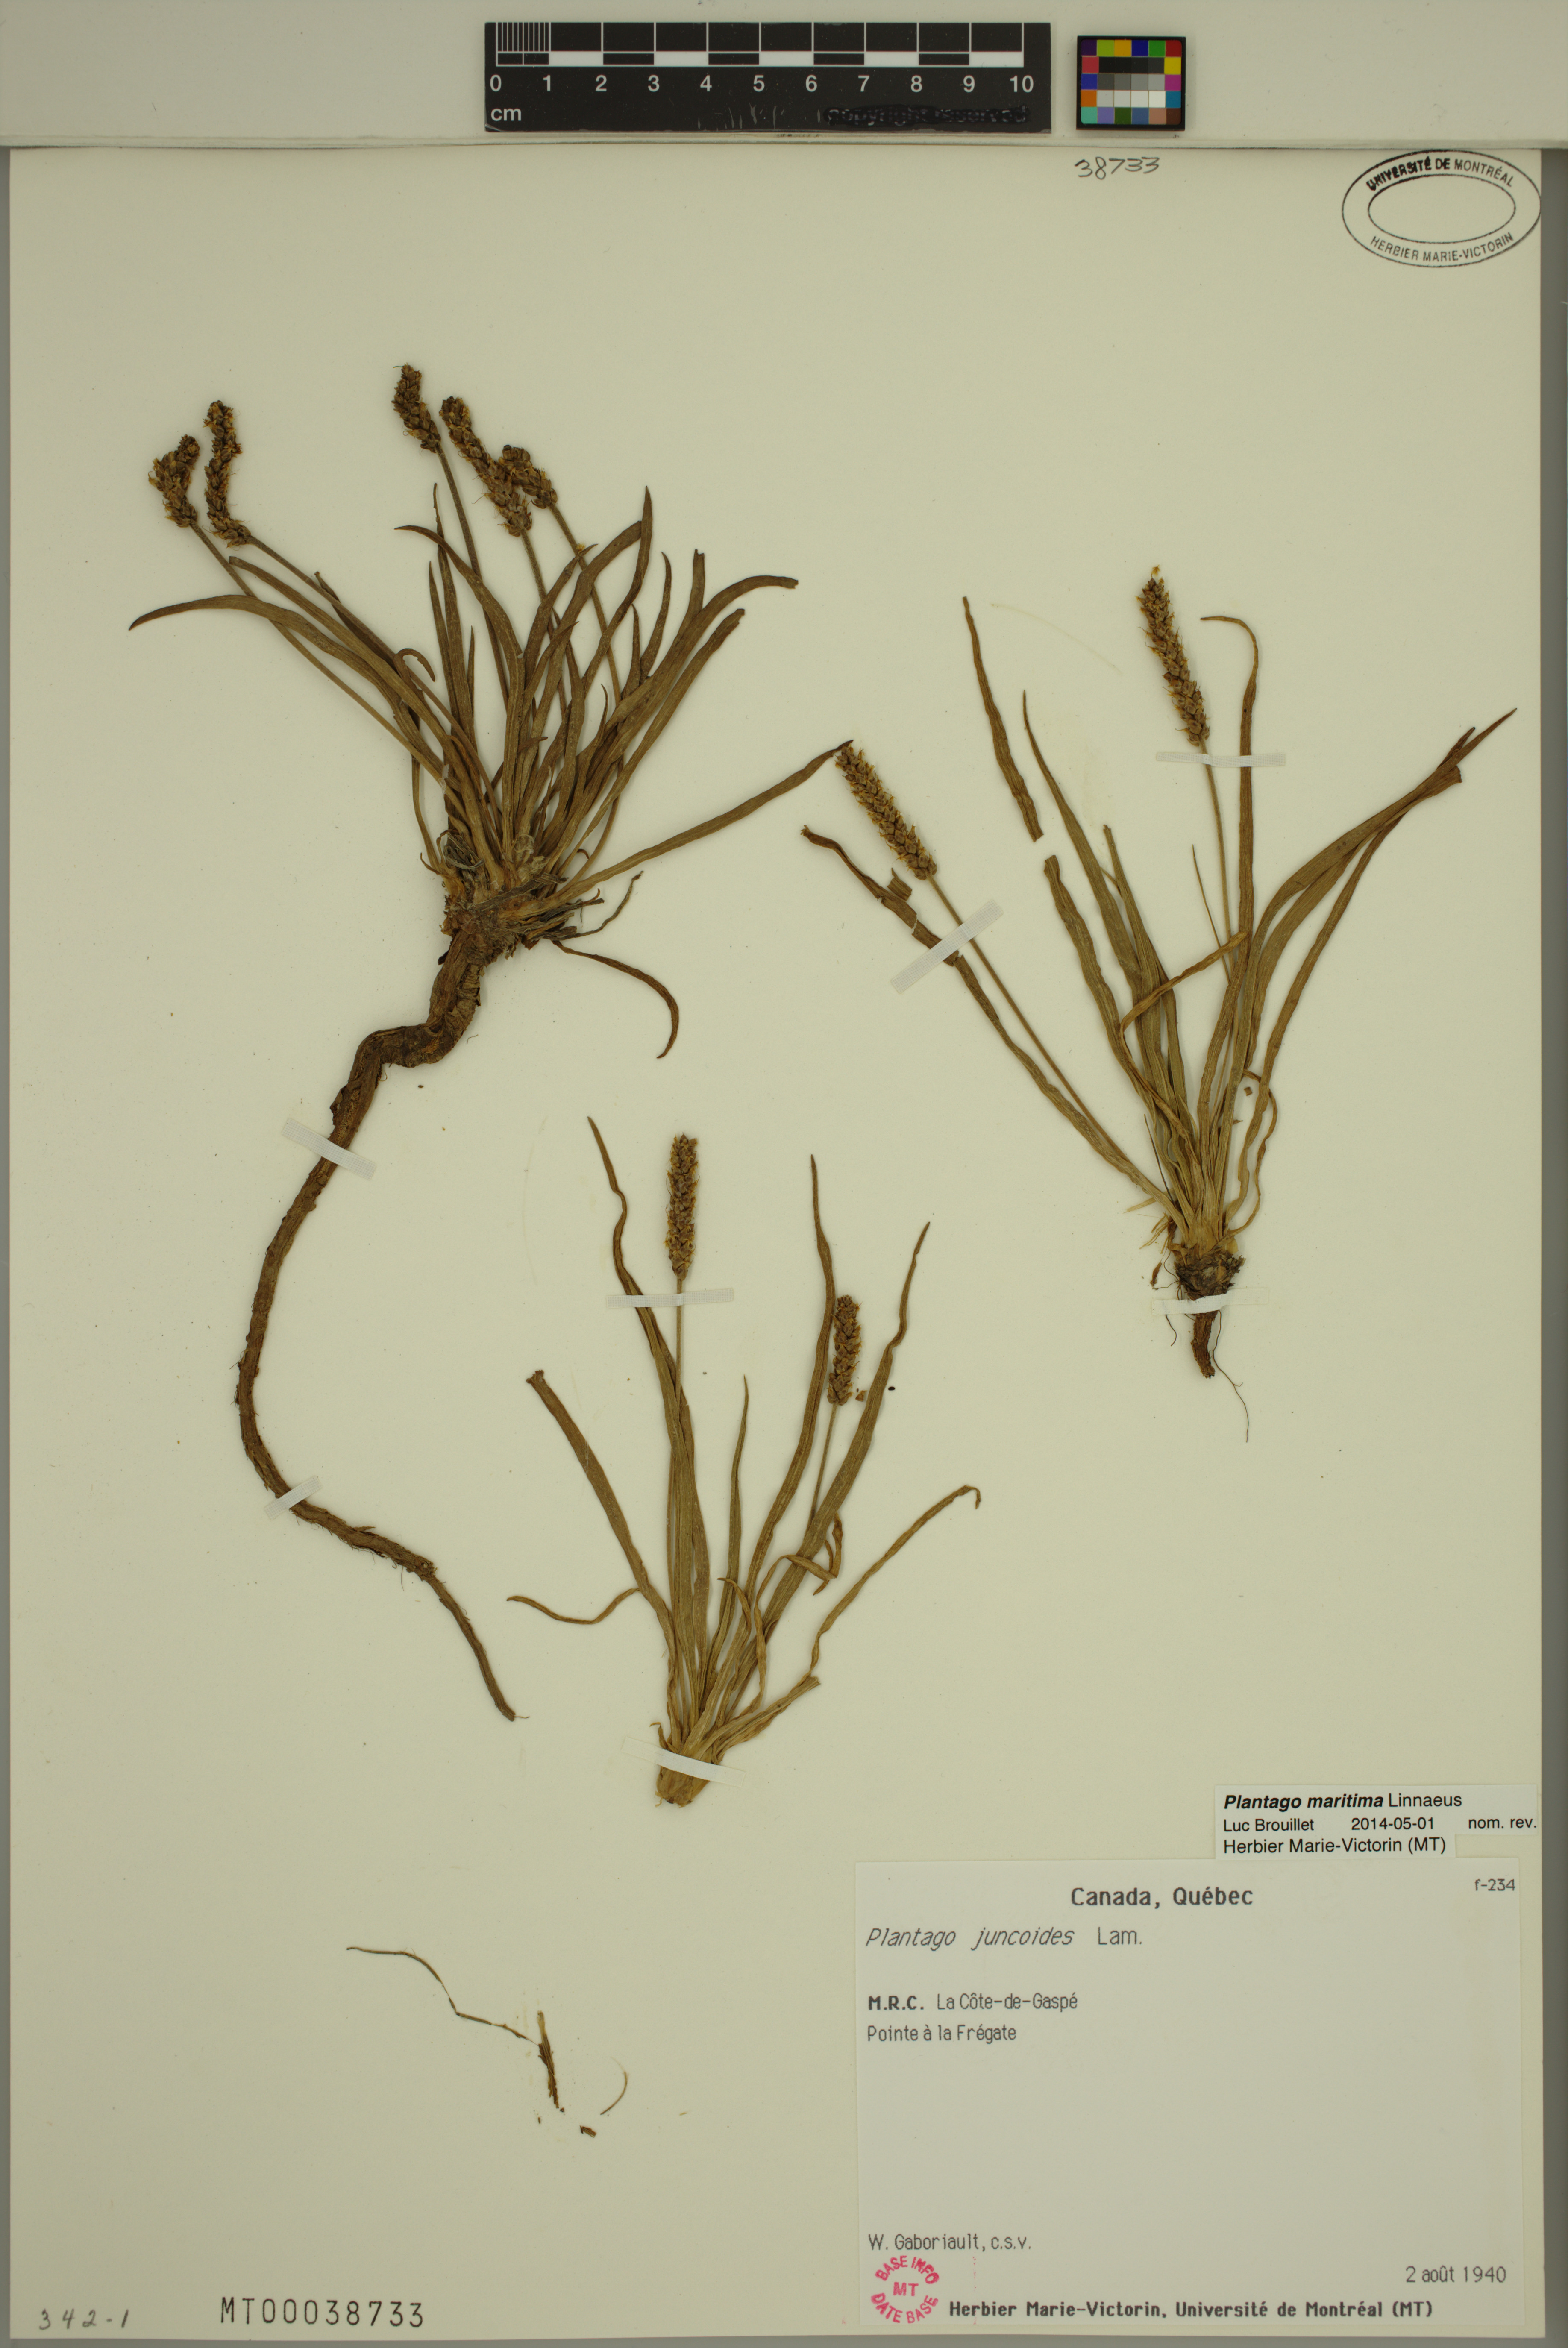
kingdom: Plantae
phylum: Tracheophyta
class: Magnoliopsida
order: Lamiales
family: Plantaginaceae
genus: Plantago
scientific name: Plantago maritima
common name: Sea plantain
